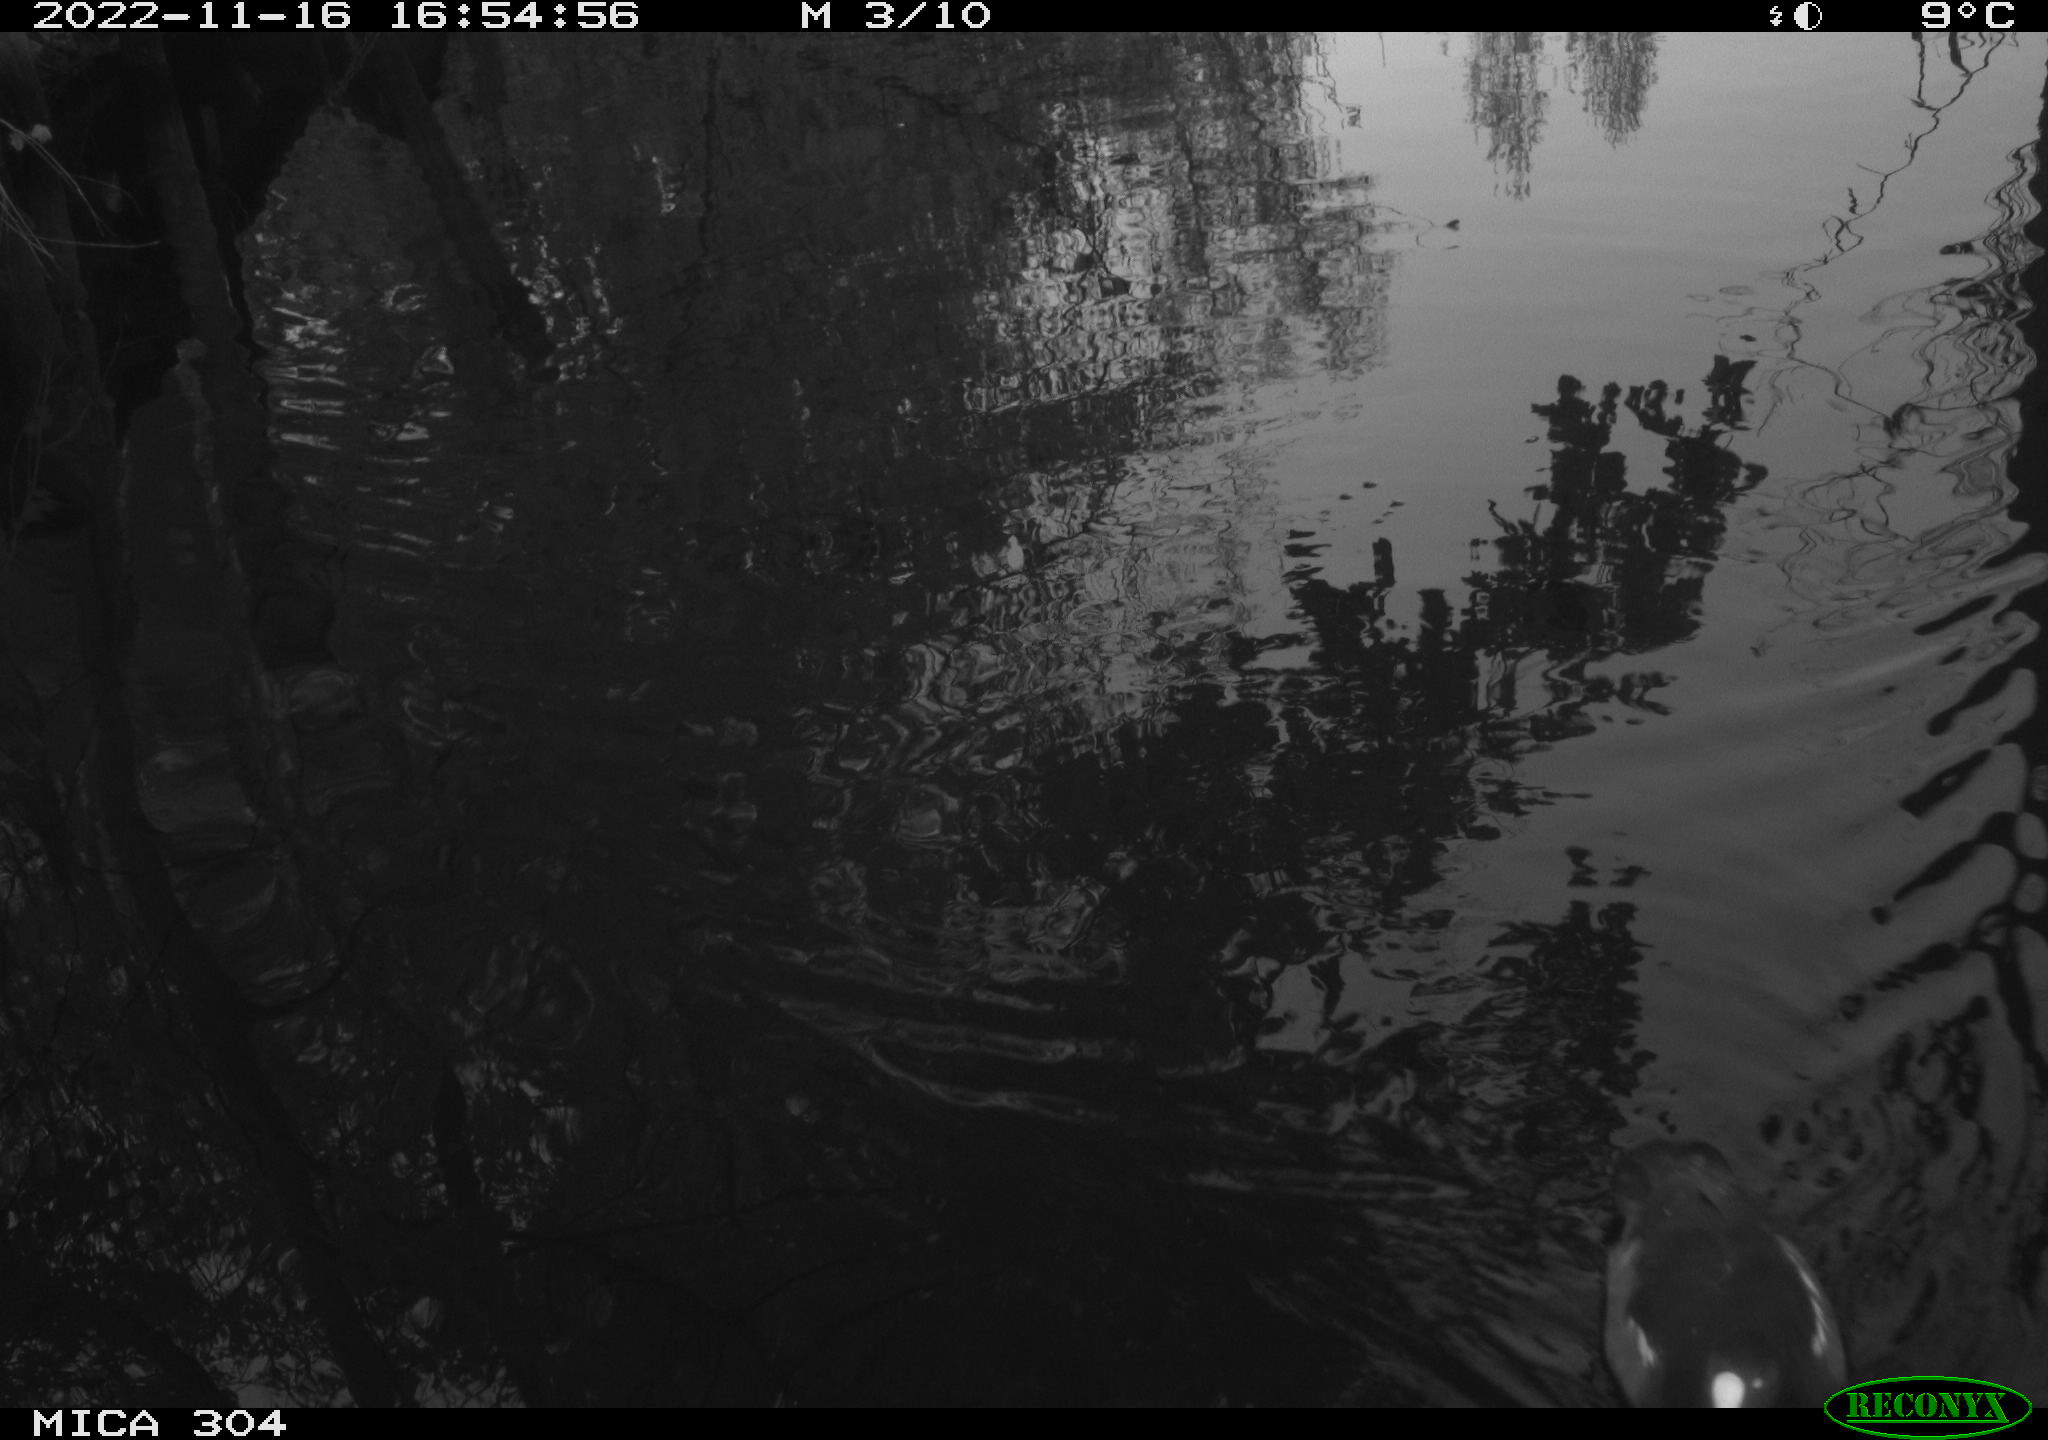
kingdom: Animalia
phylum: Chordata
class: Aves
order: Gruiformes
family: Rallidae
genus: Gallinula
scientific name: Gallinula chloropus
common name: Common moorhen
